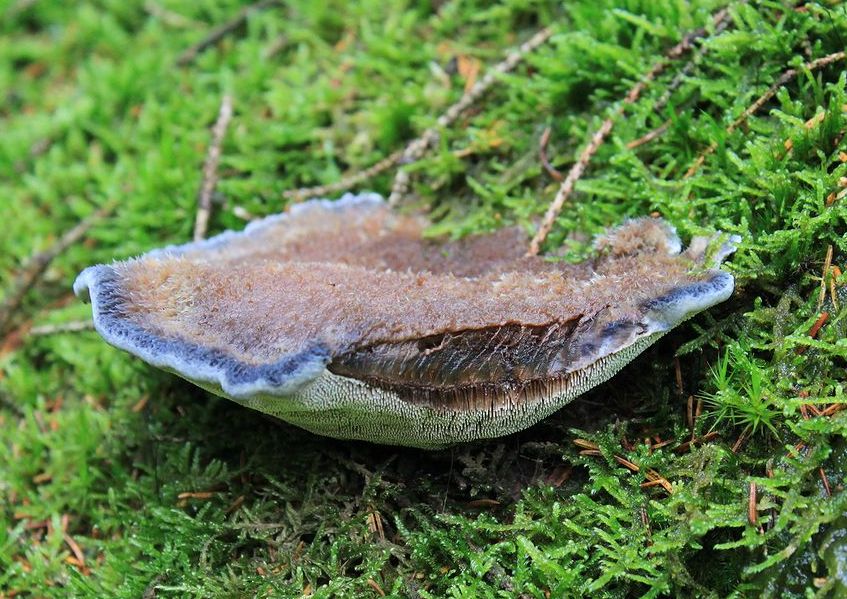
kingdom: Fungi
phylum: Basidiomycota
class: Agaricomycetes
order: Thelephorales
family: Bankeraceae
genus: Hydnellum
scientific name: Hydnellum caeruleum
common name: blålig korkpigsvamp
